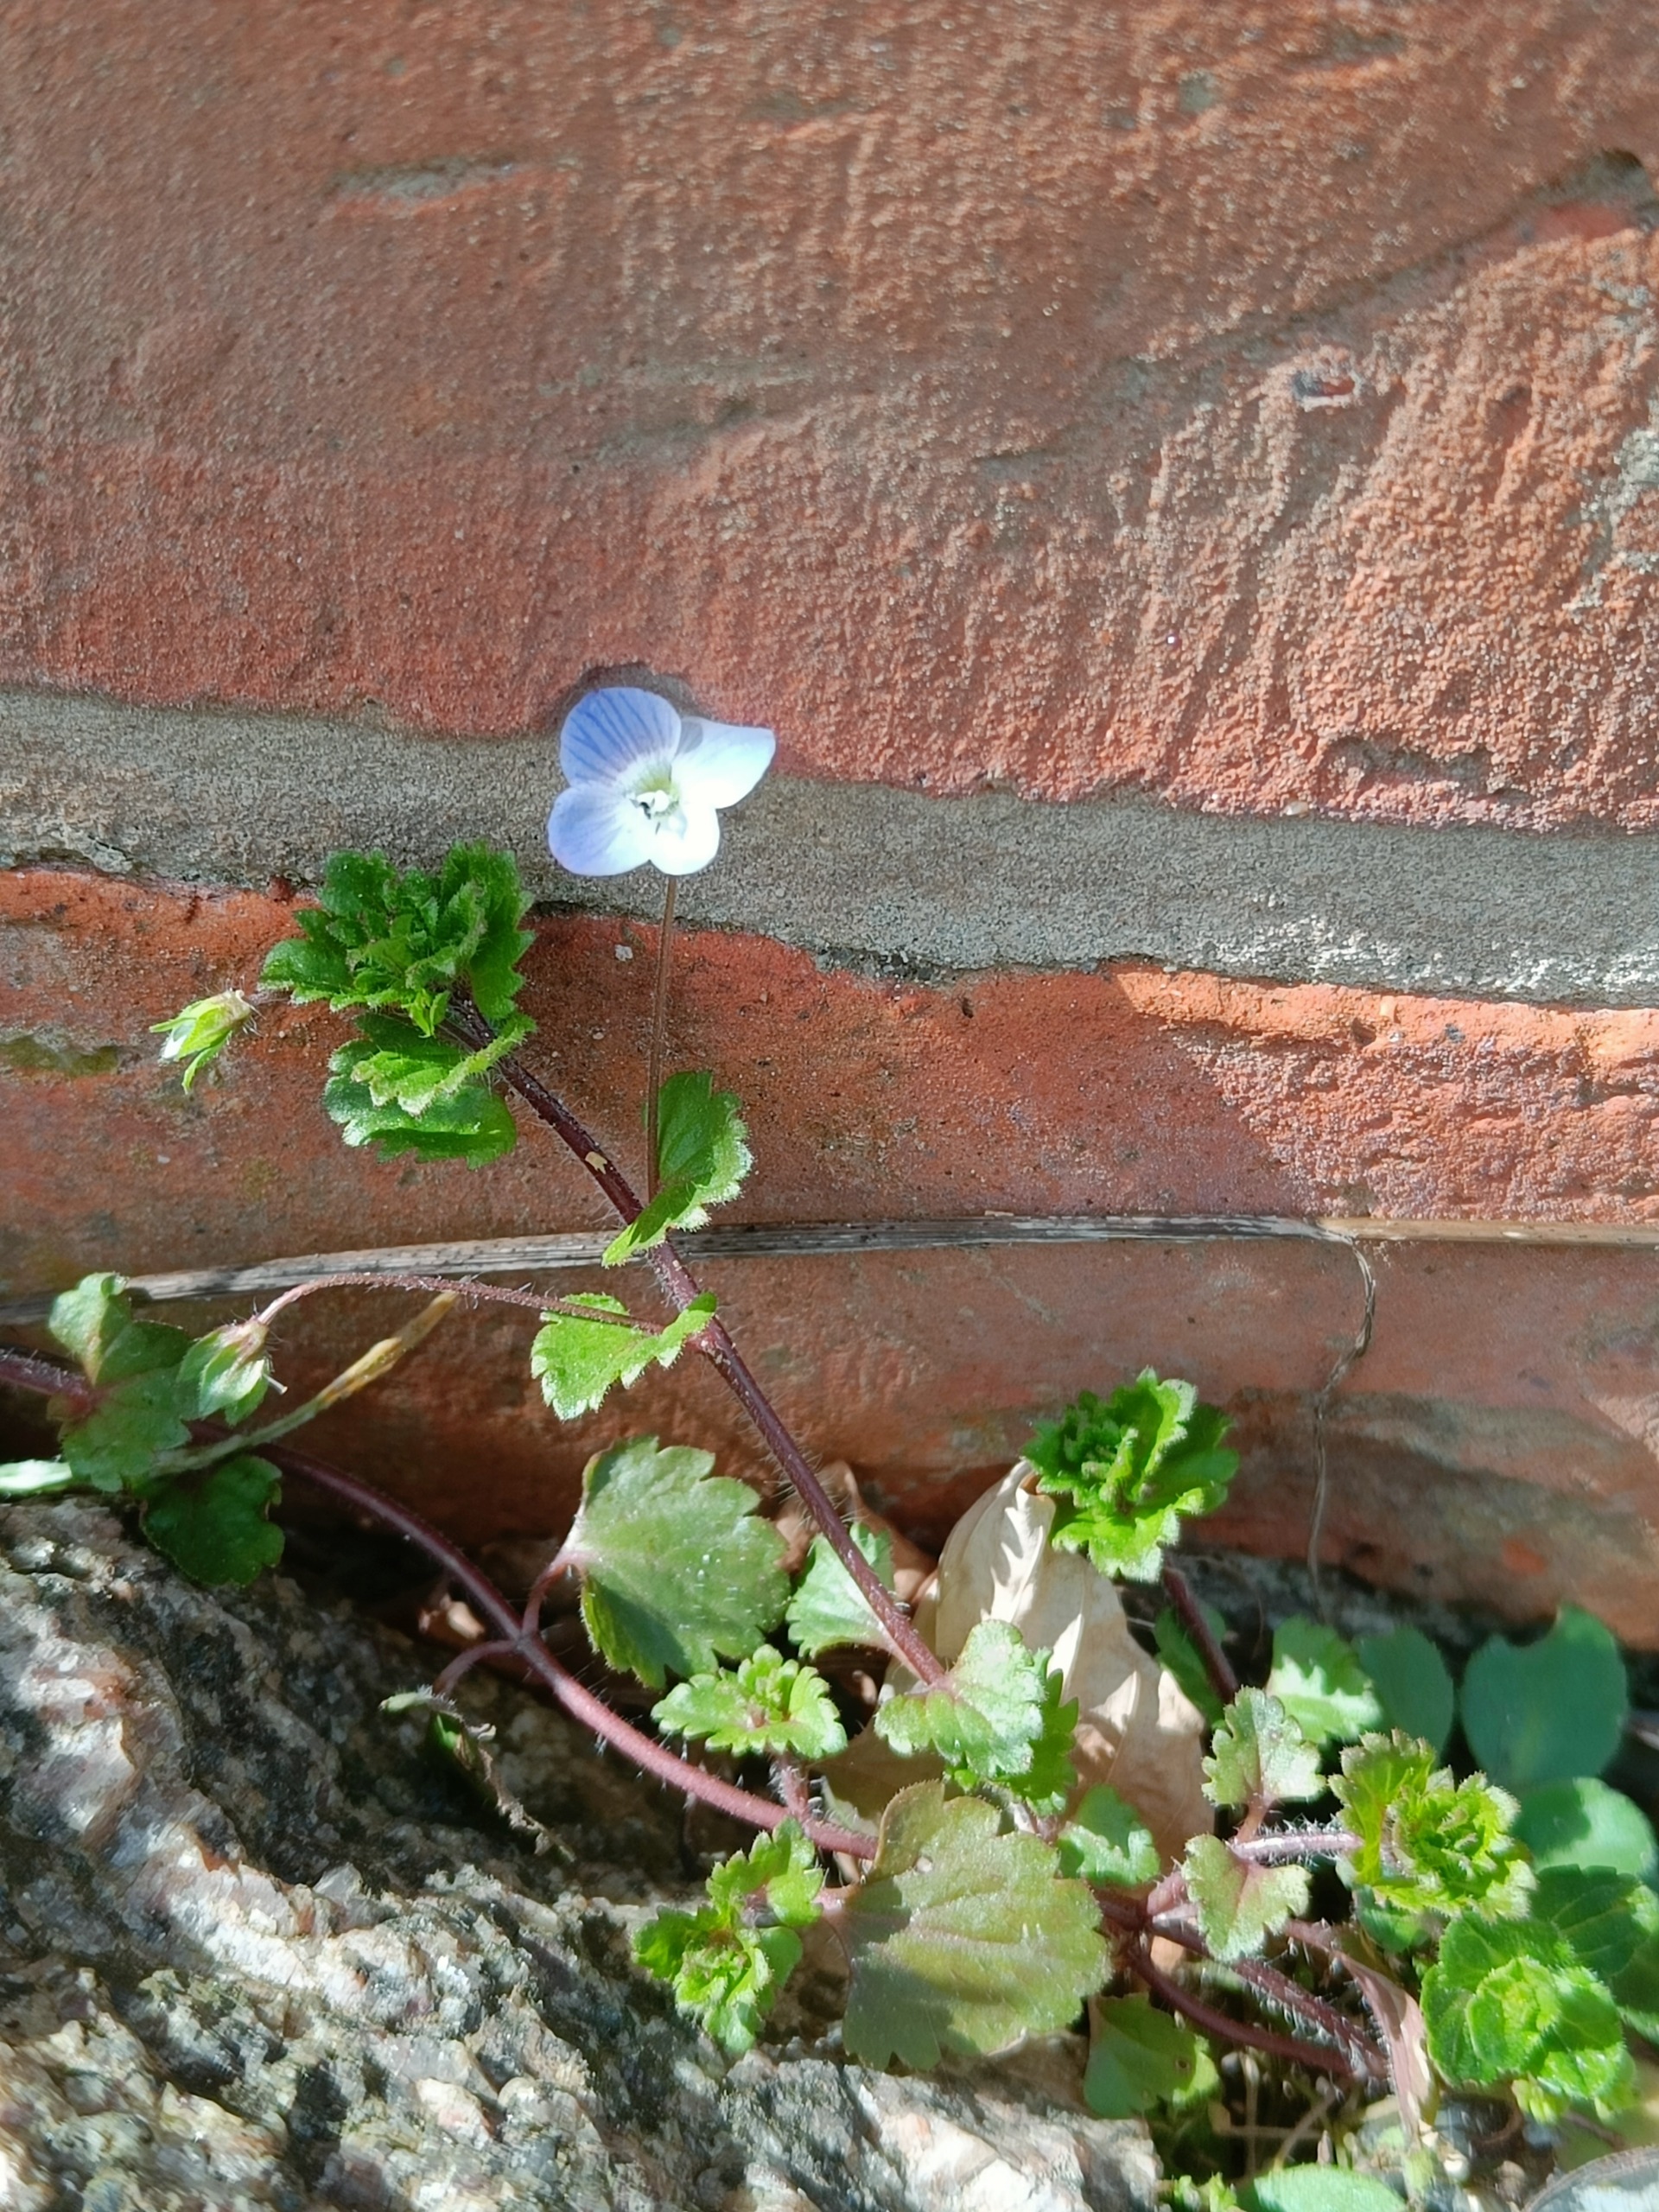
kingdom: Plantae
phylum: Tracheophyta
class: Magnoliopsida
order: Lamiales
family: Plantaginaceae
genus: Veronica
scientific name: Veronica persica
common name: Storkronet ærenpris
